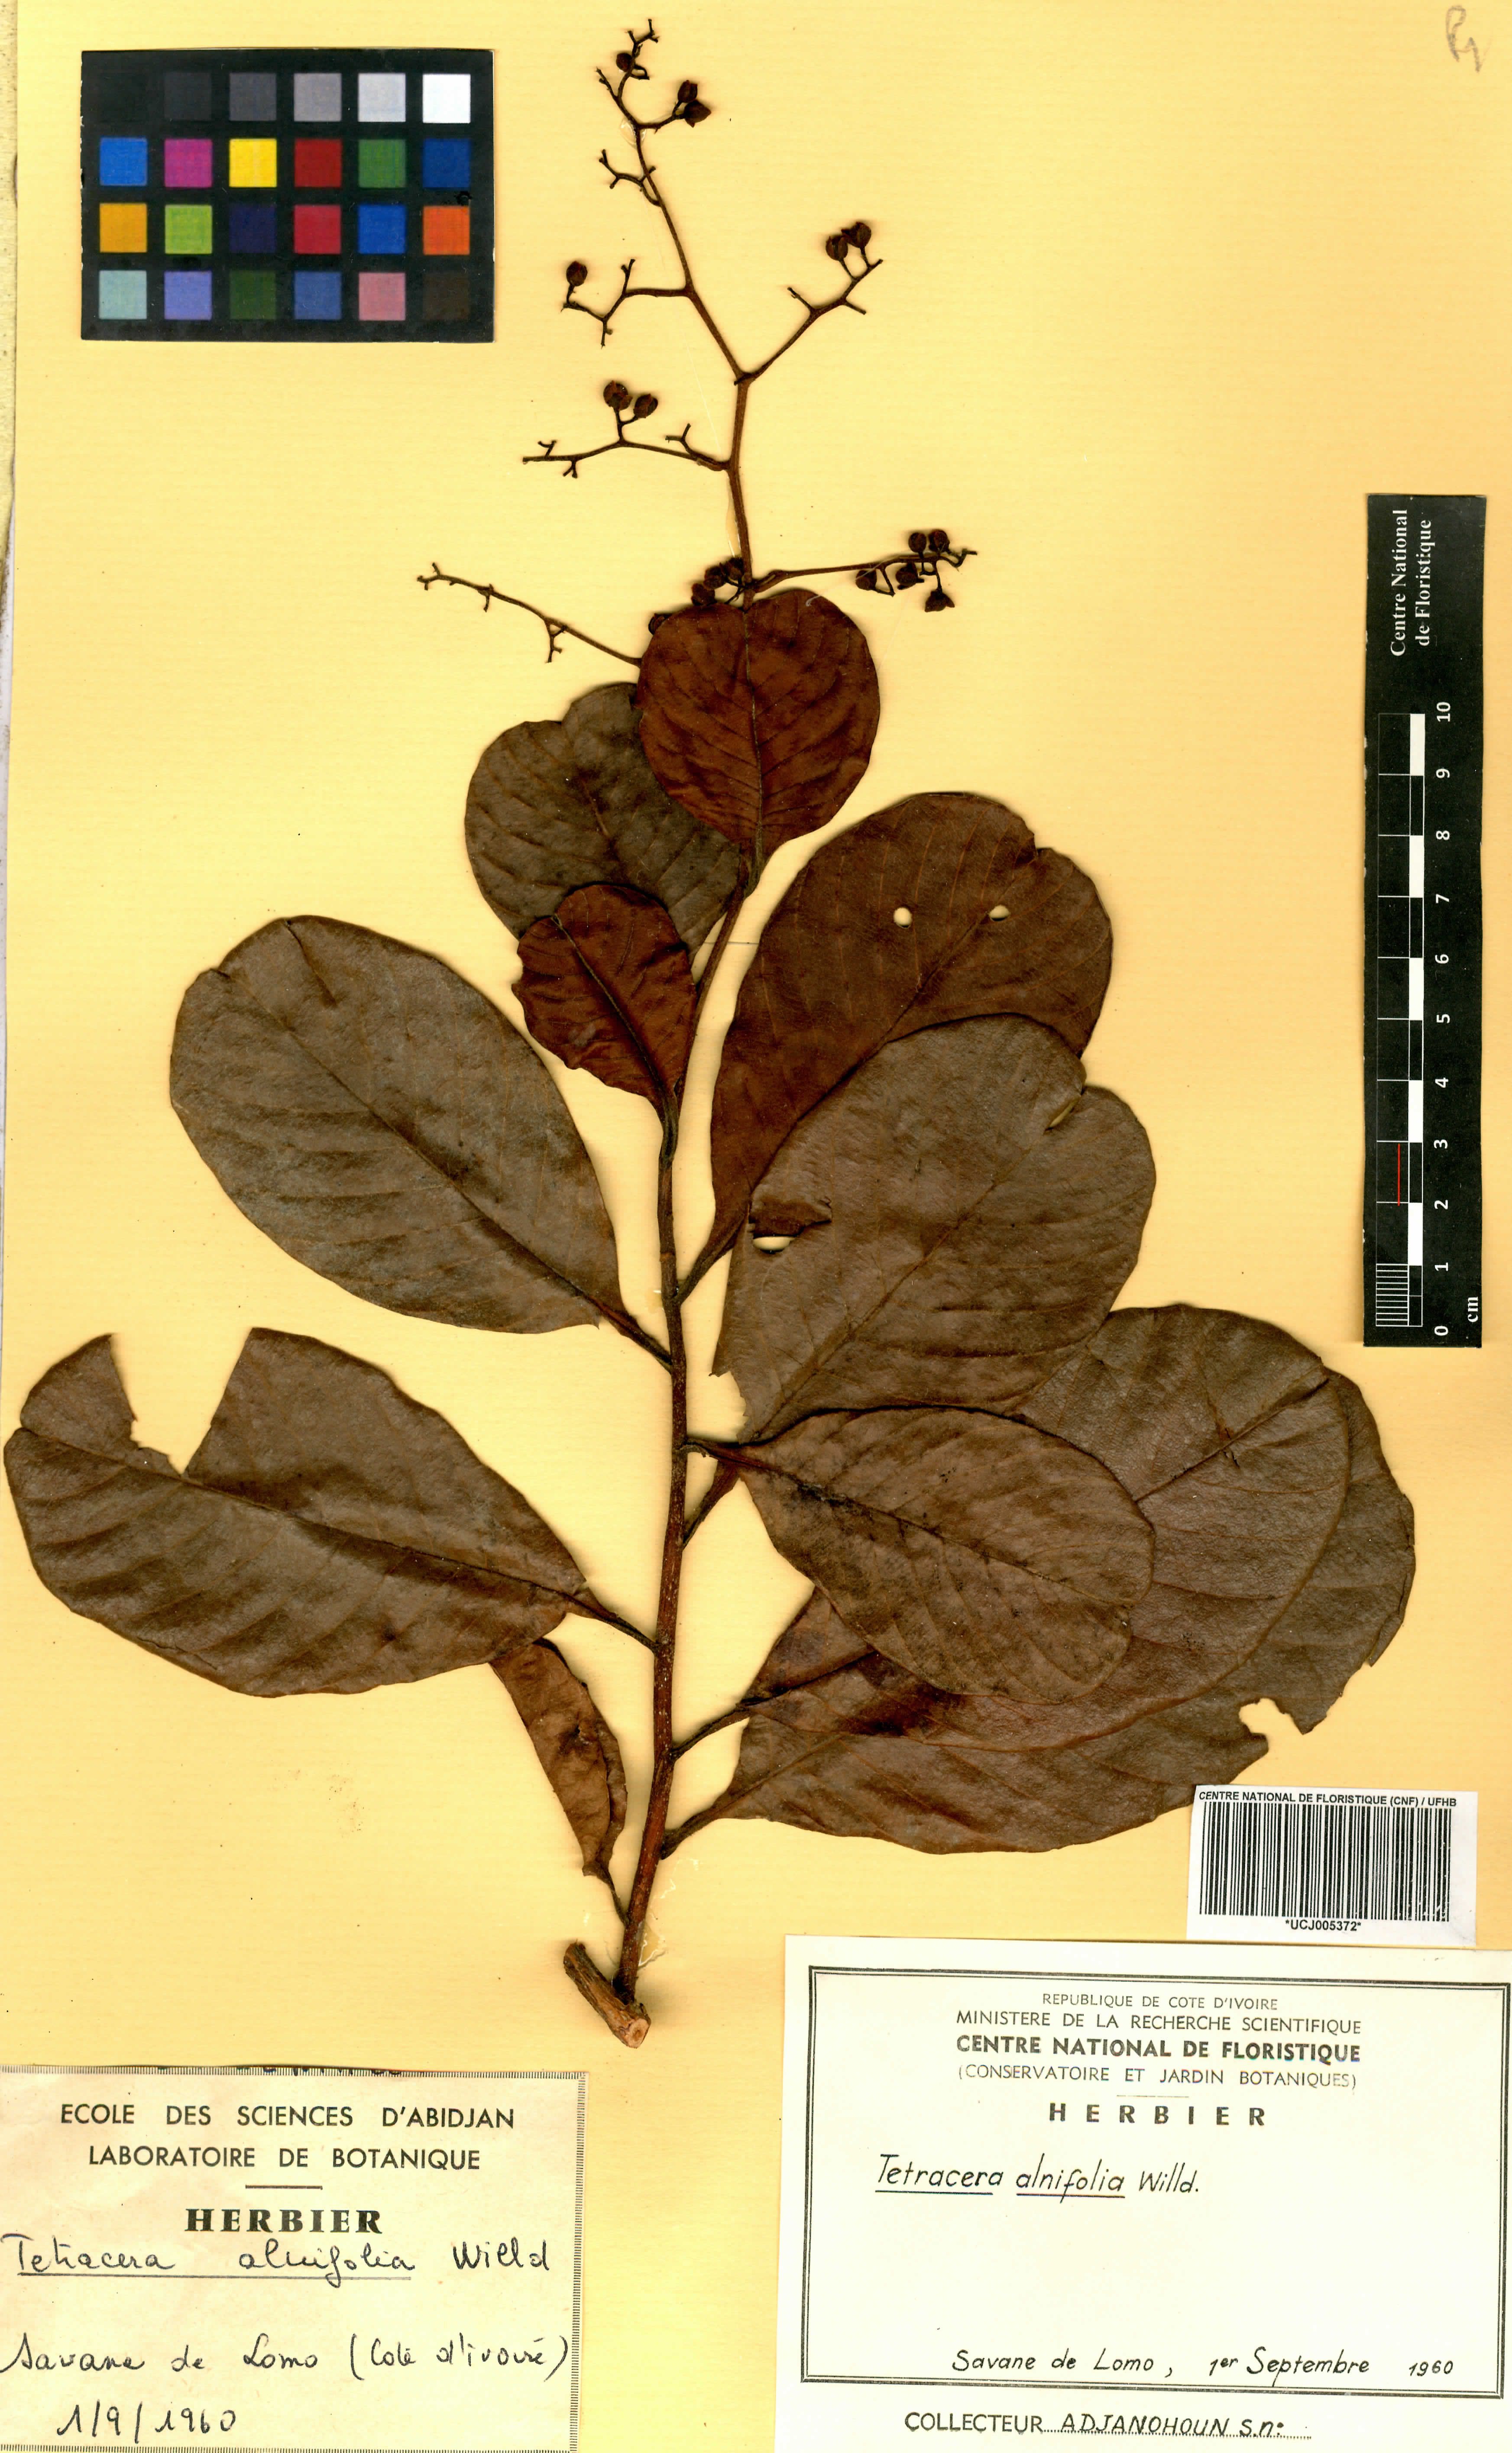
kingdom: Plantae
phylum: Tracheophyta
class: Magnoliopsida
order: Dilleniales
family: Dilleniaceae
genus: Tetracera
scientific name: Tetracera alnifolia
